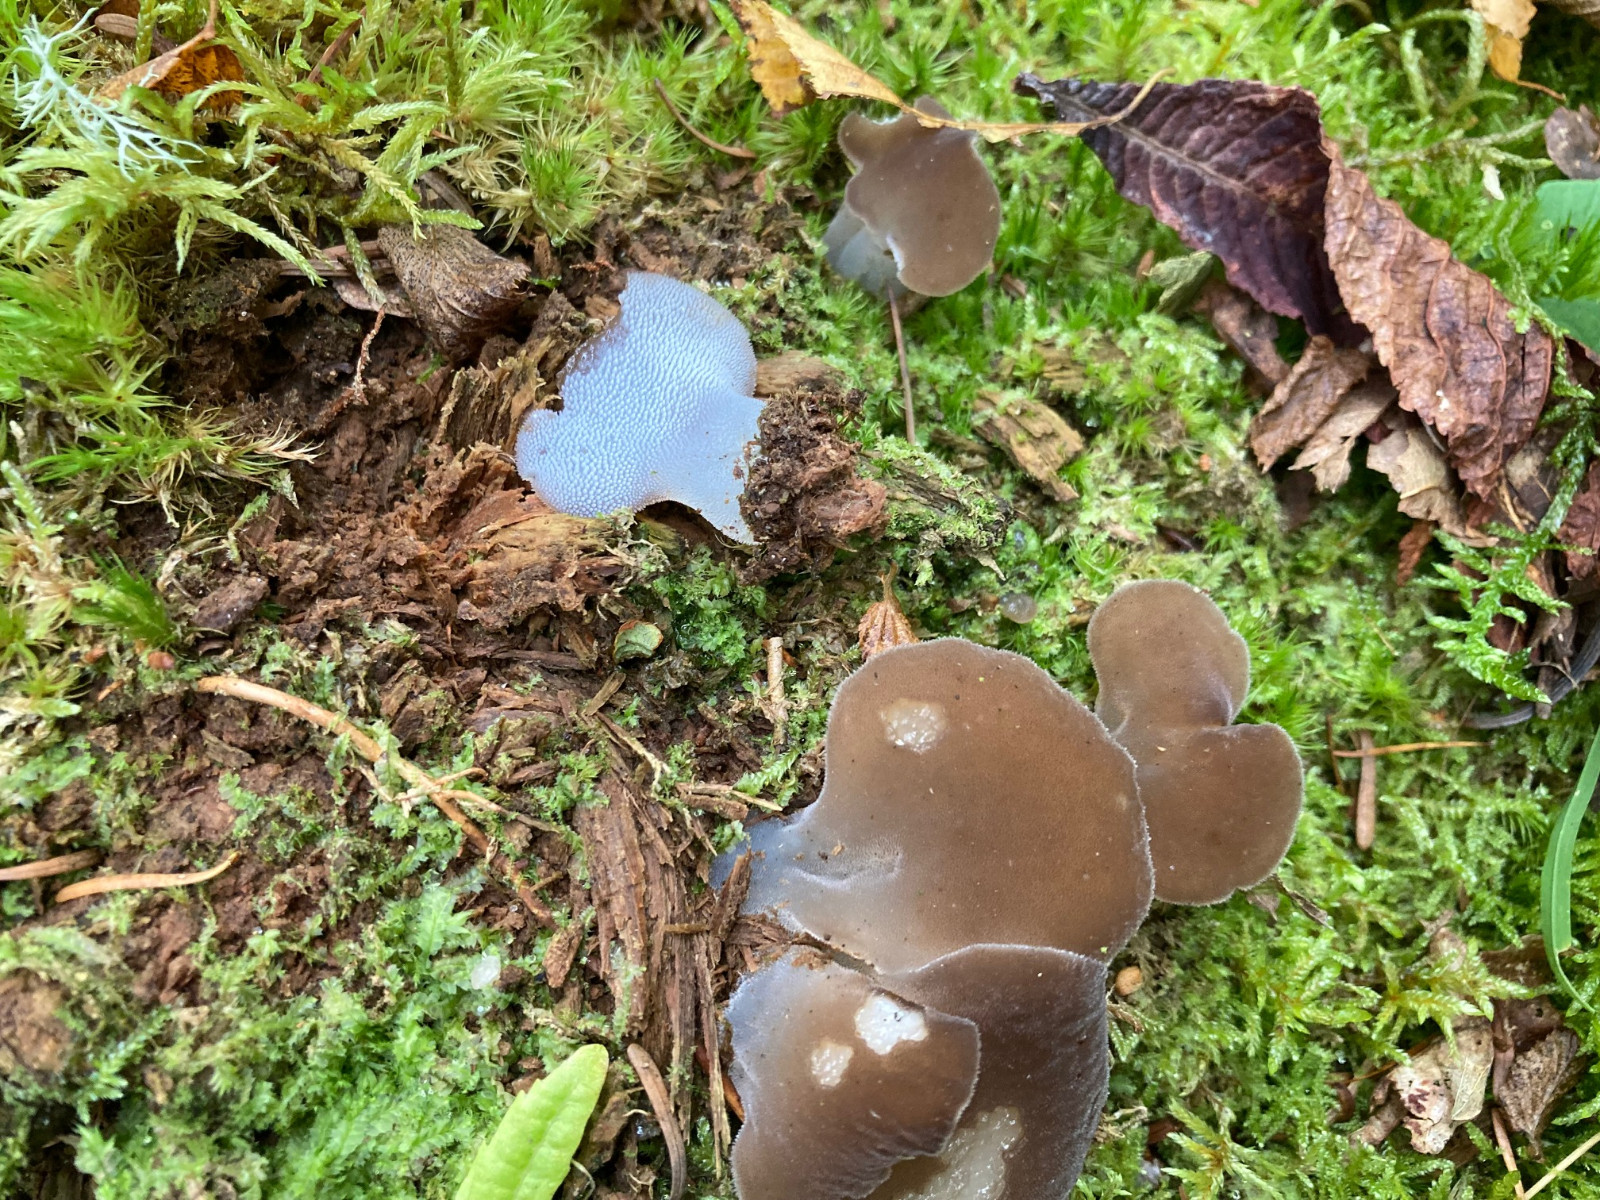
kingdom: Fungi
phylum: Basidiomycota
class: Agaricomycetes
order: Auriculariales
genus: Pseudohydnum
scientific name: Pseudohydnum gelatinosum
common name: bævretand
